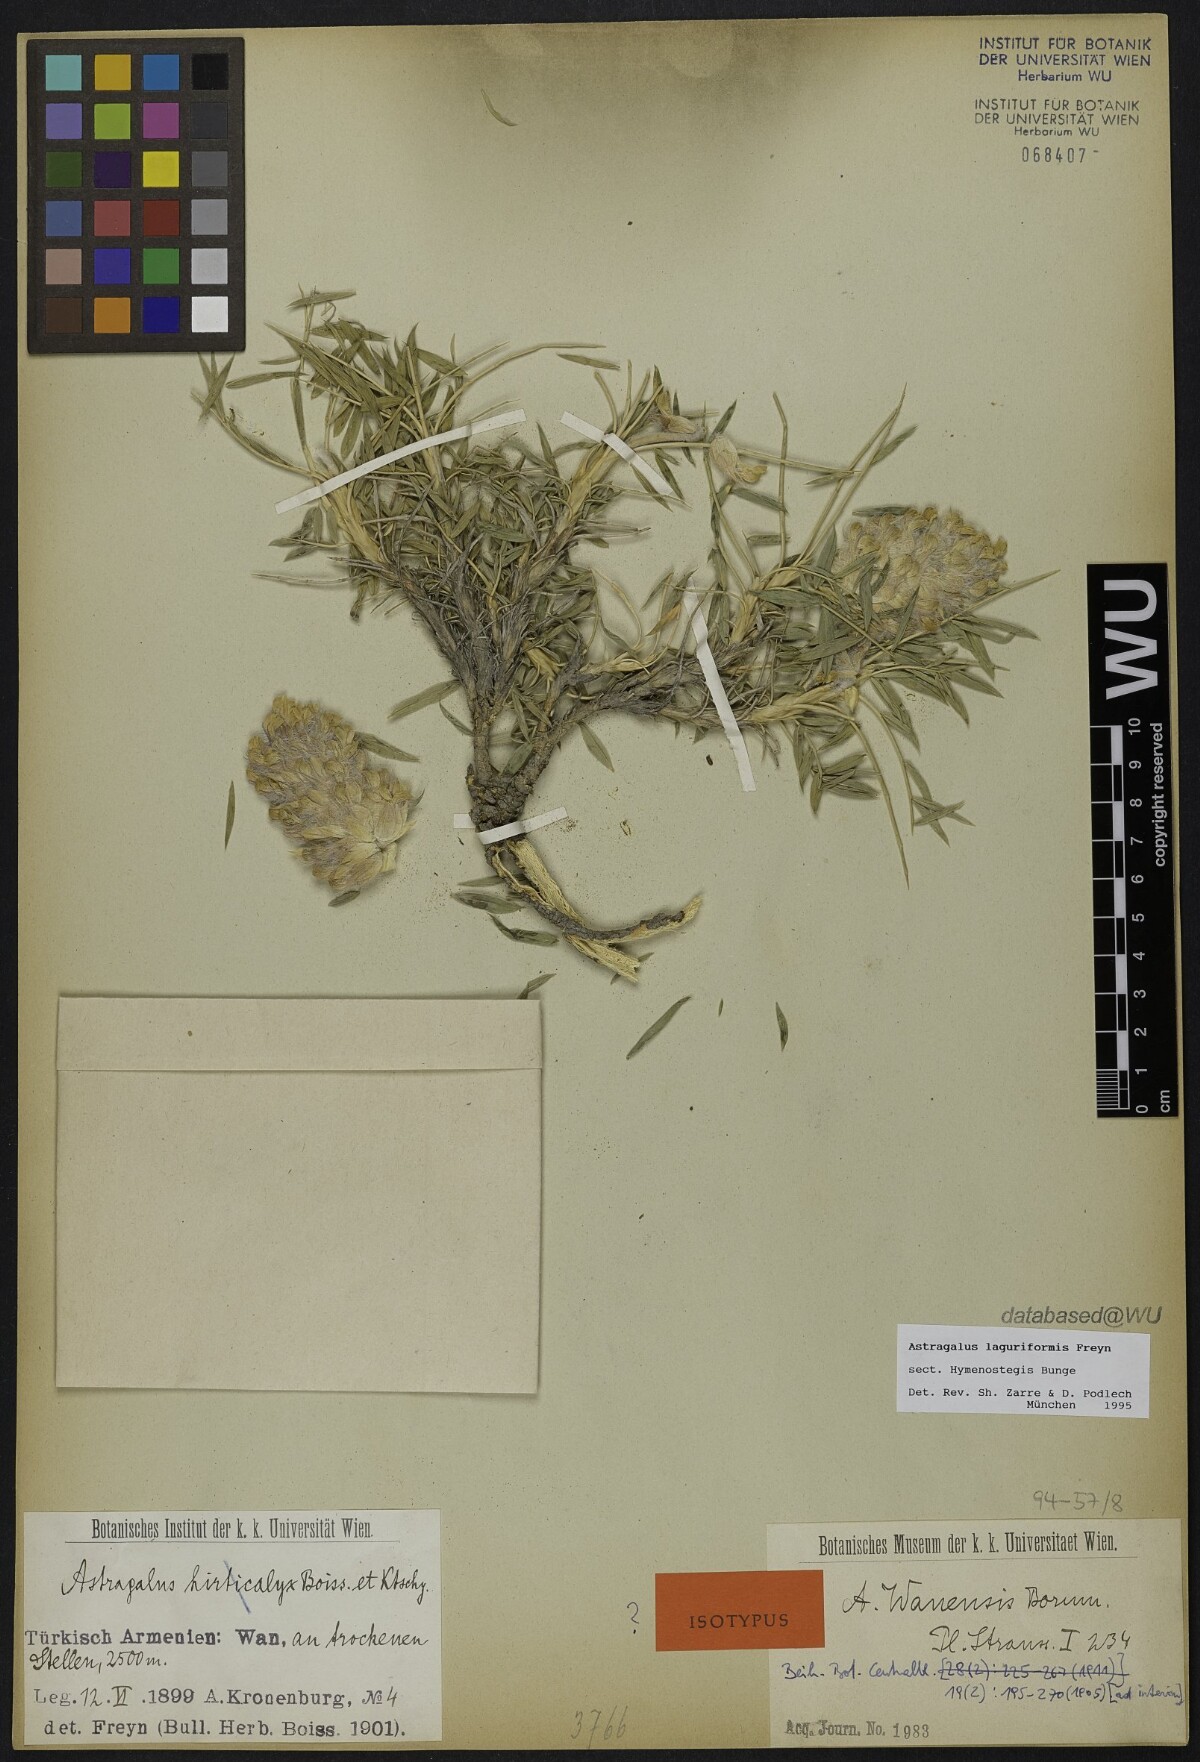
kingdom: Plantae
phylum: Tracheophyta
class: Magnoliopsida
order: Fabales
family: Fabaceae
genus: Astragalus
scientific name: Astragalus
